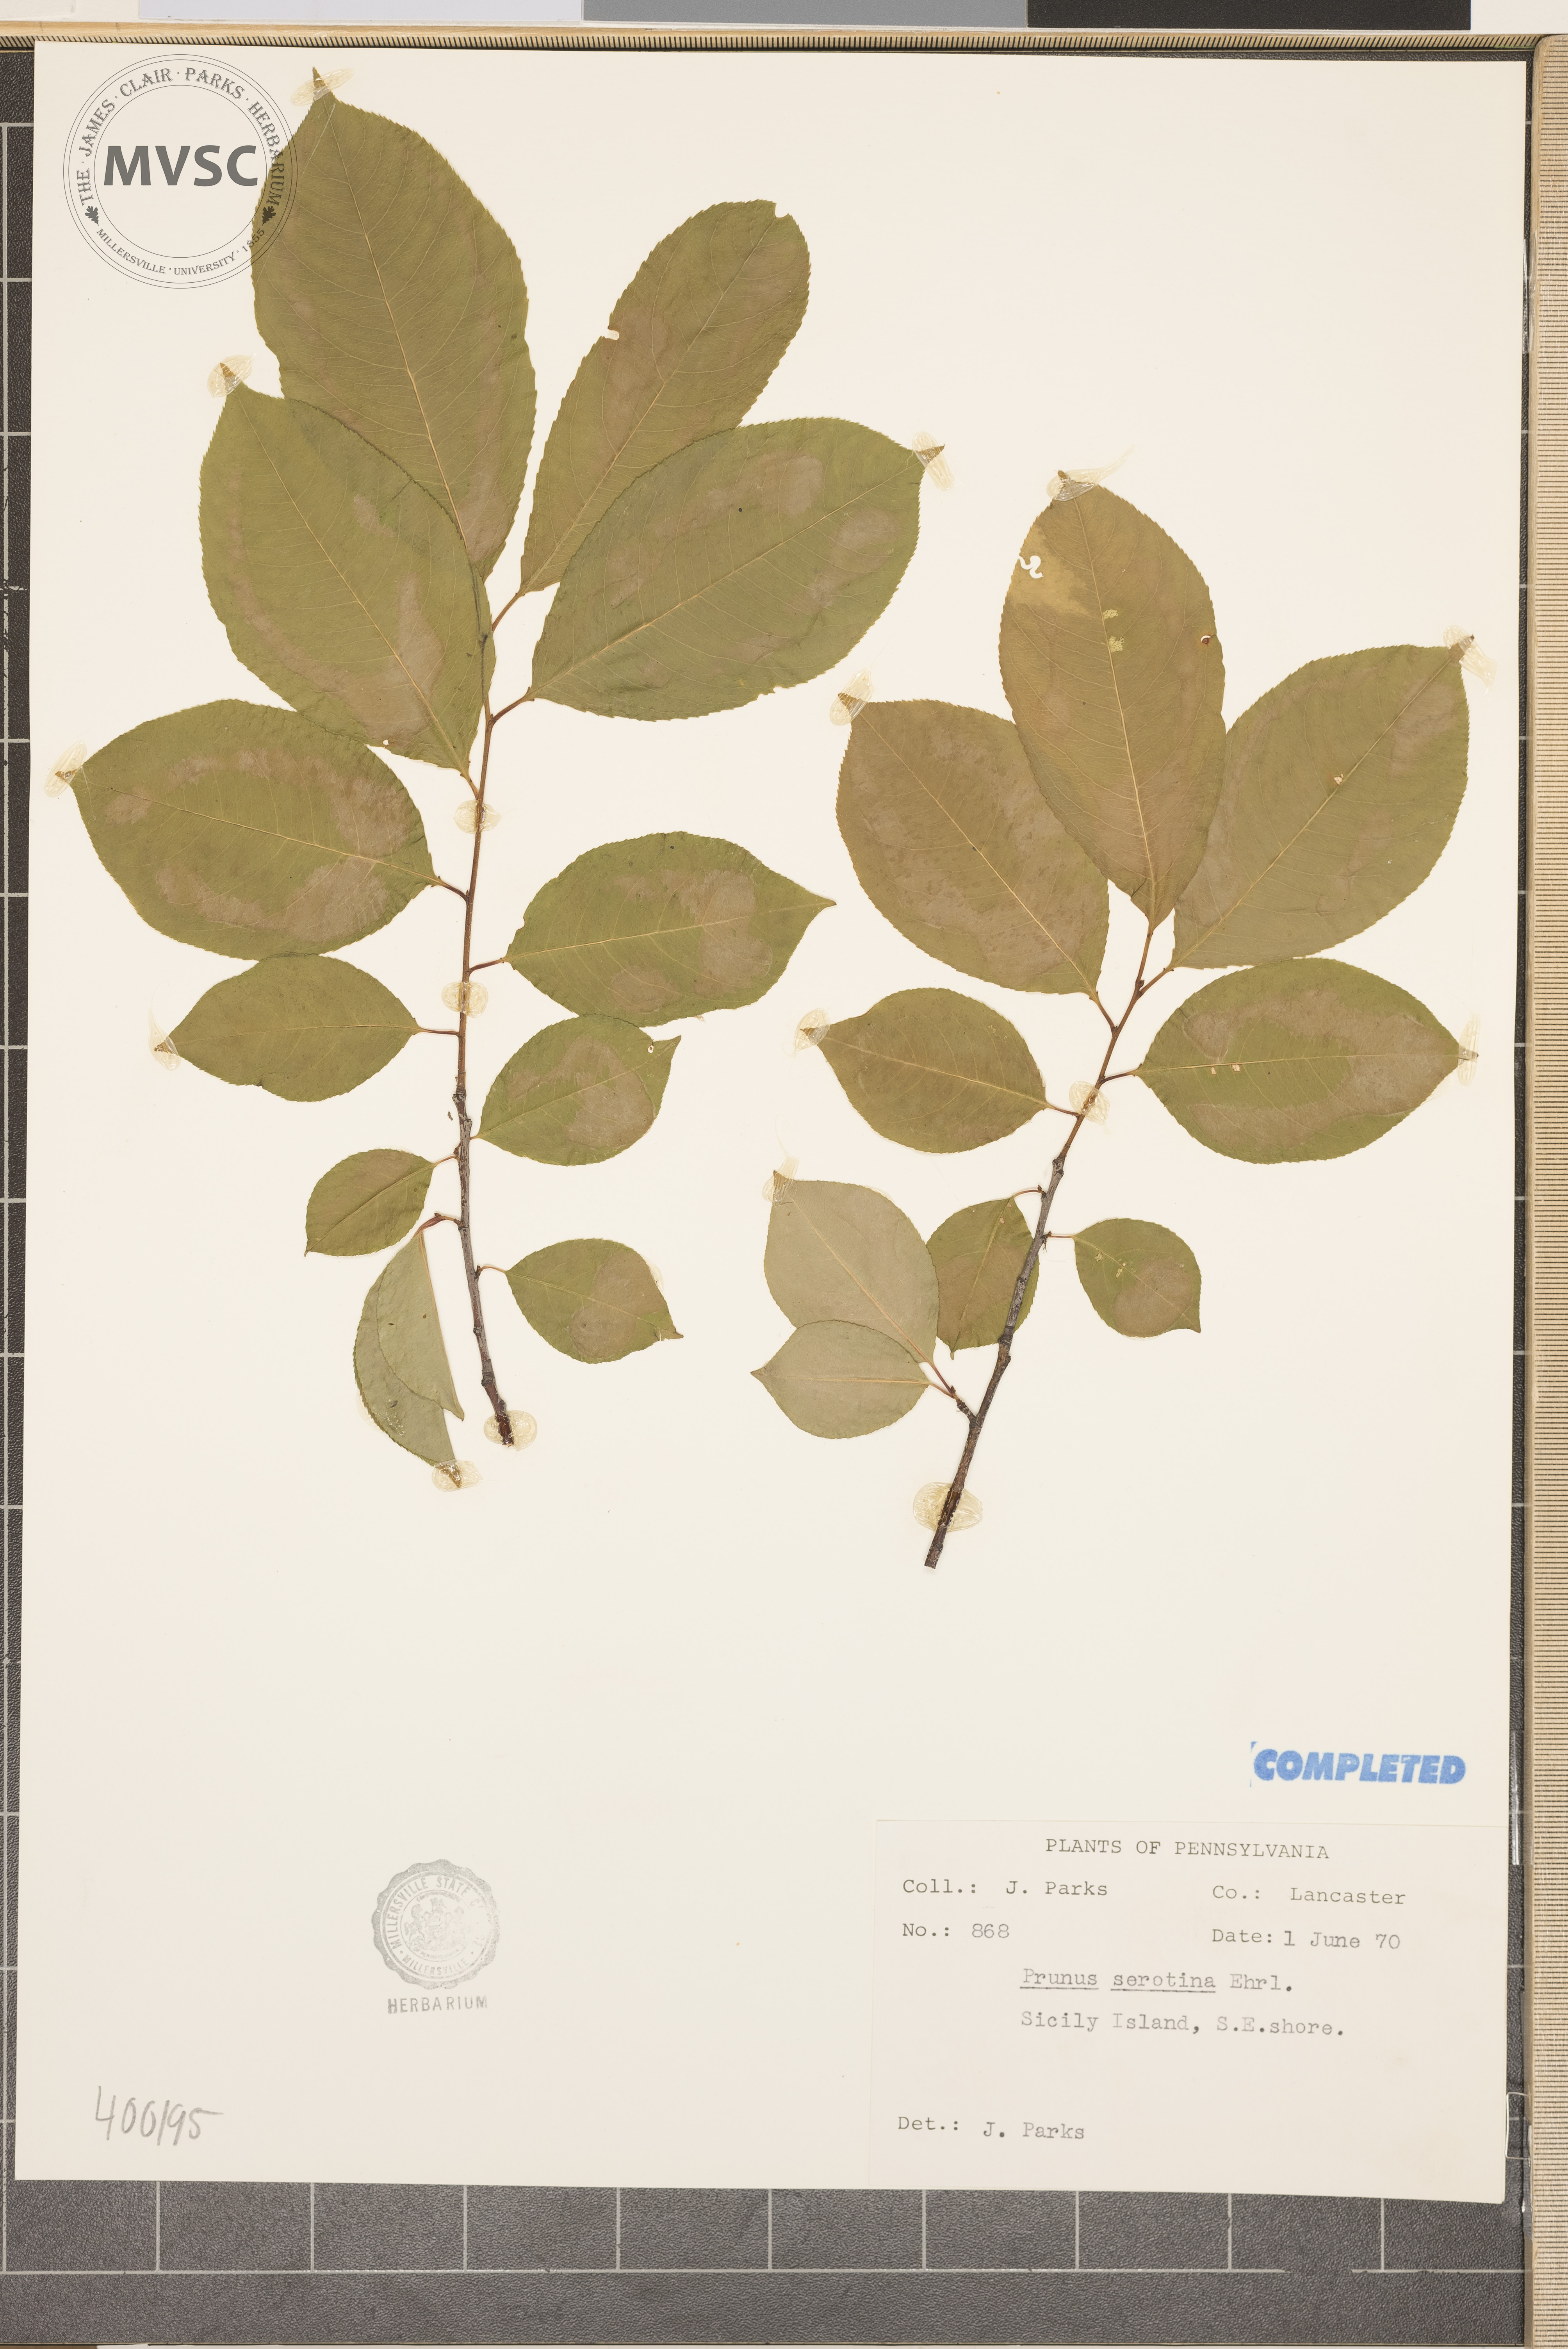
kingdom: Plantae
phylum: Tracheophyta
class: Magnoliopsida
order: Rosales
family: Rosaceae
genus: Prunus
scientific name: Prunus serotina
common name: wild black cherry
